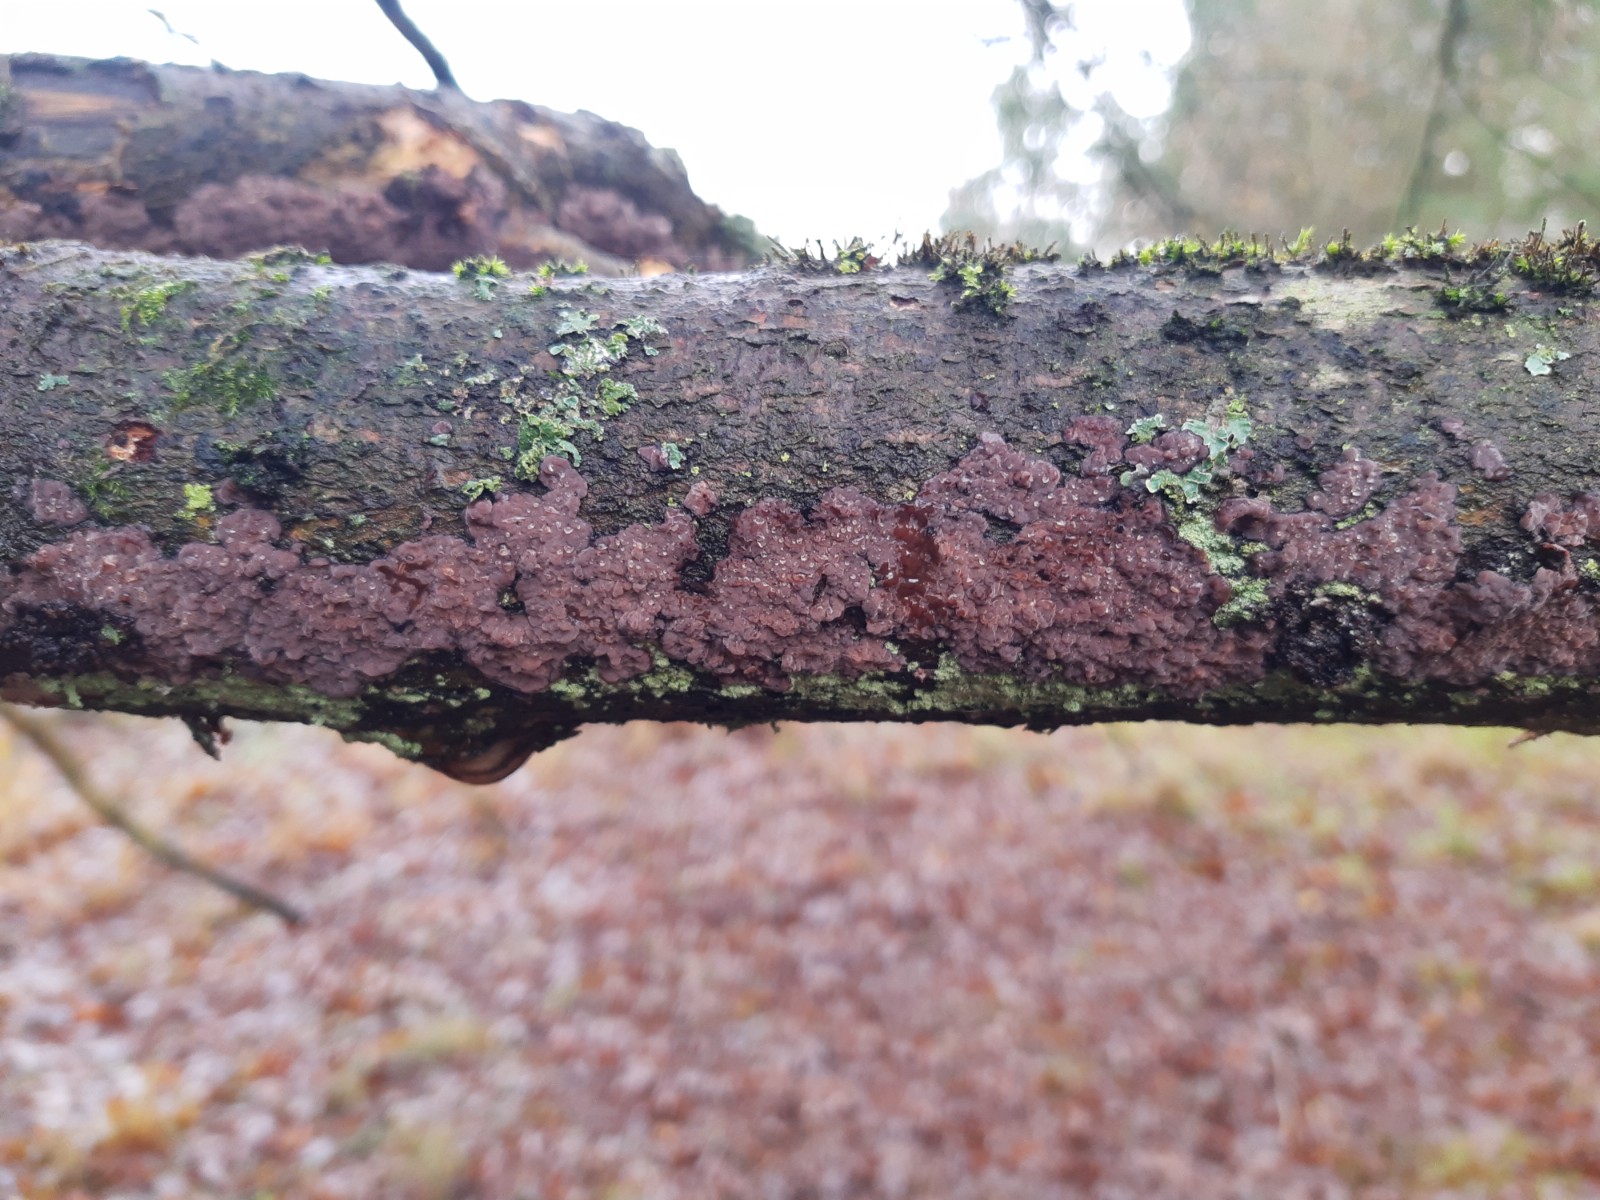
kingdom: Fungi
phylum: Basidiomycota
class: Agaricomycetes
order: Russulales
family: Peniophoraceae
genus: Peniophora
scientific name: Peniophora quercina
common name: ege-voksskind
